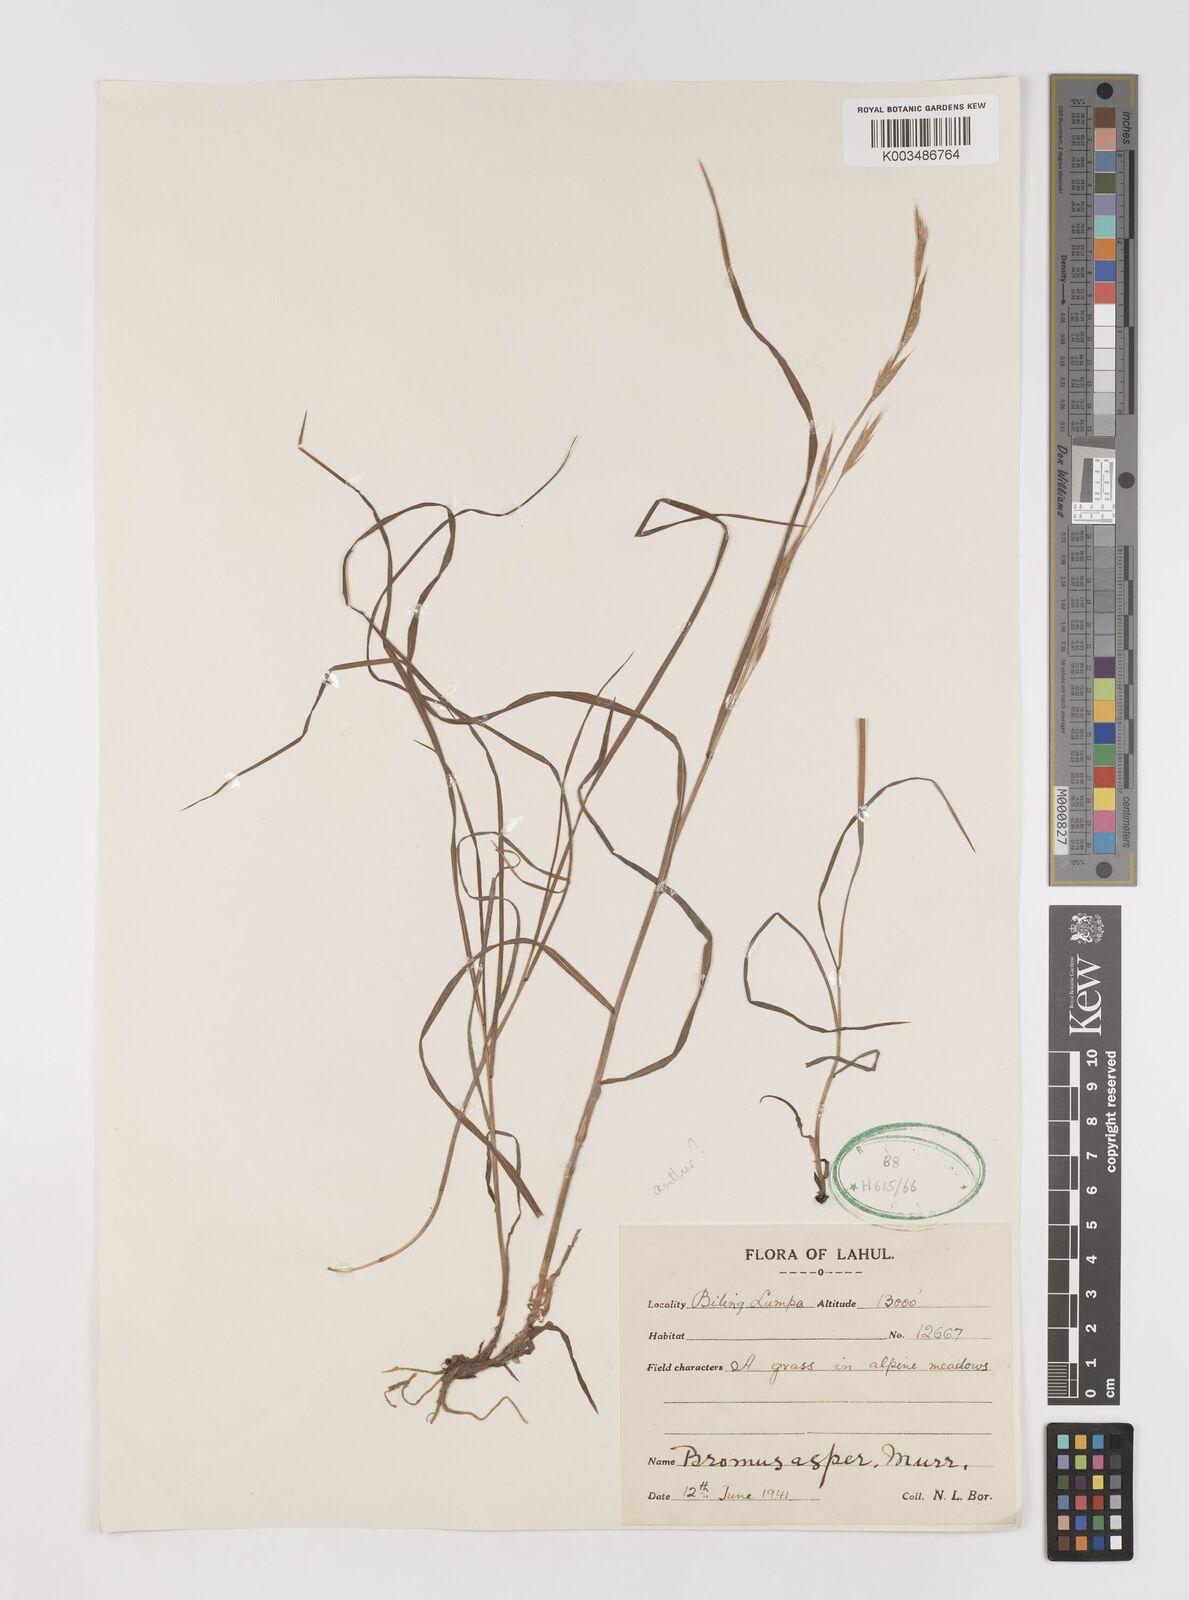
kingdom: Plantae
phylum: Tracheophyta
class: Liliopsida
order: Poales
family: Poaceae
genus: Brachypodium
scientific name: Brachypodium retusum
